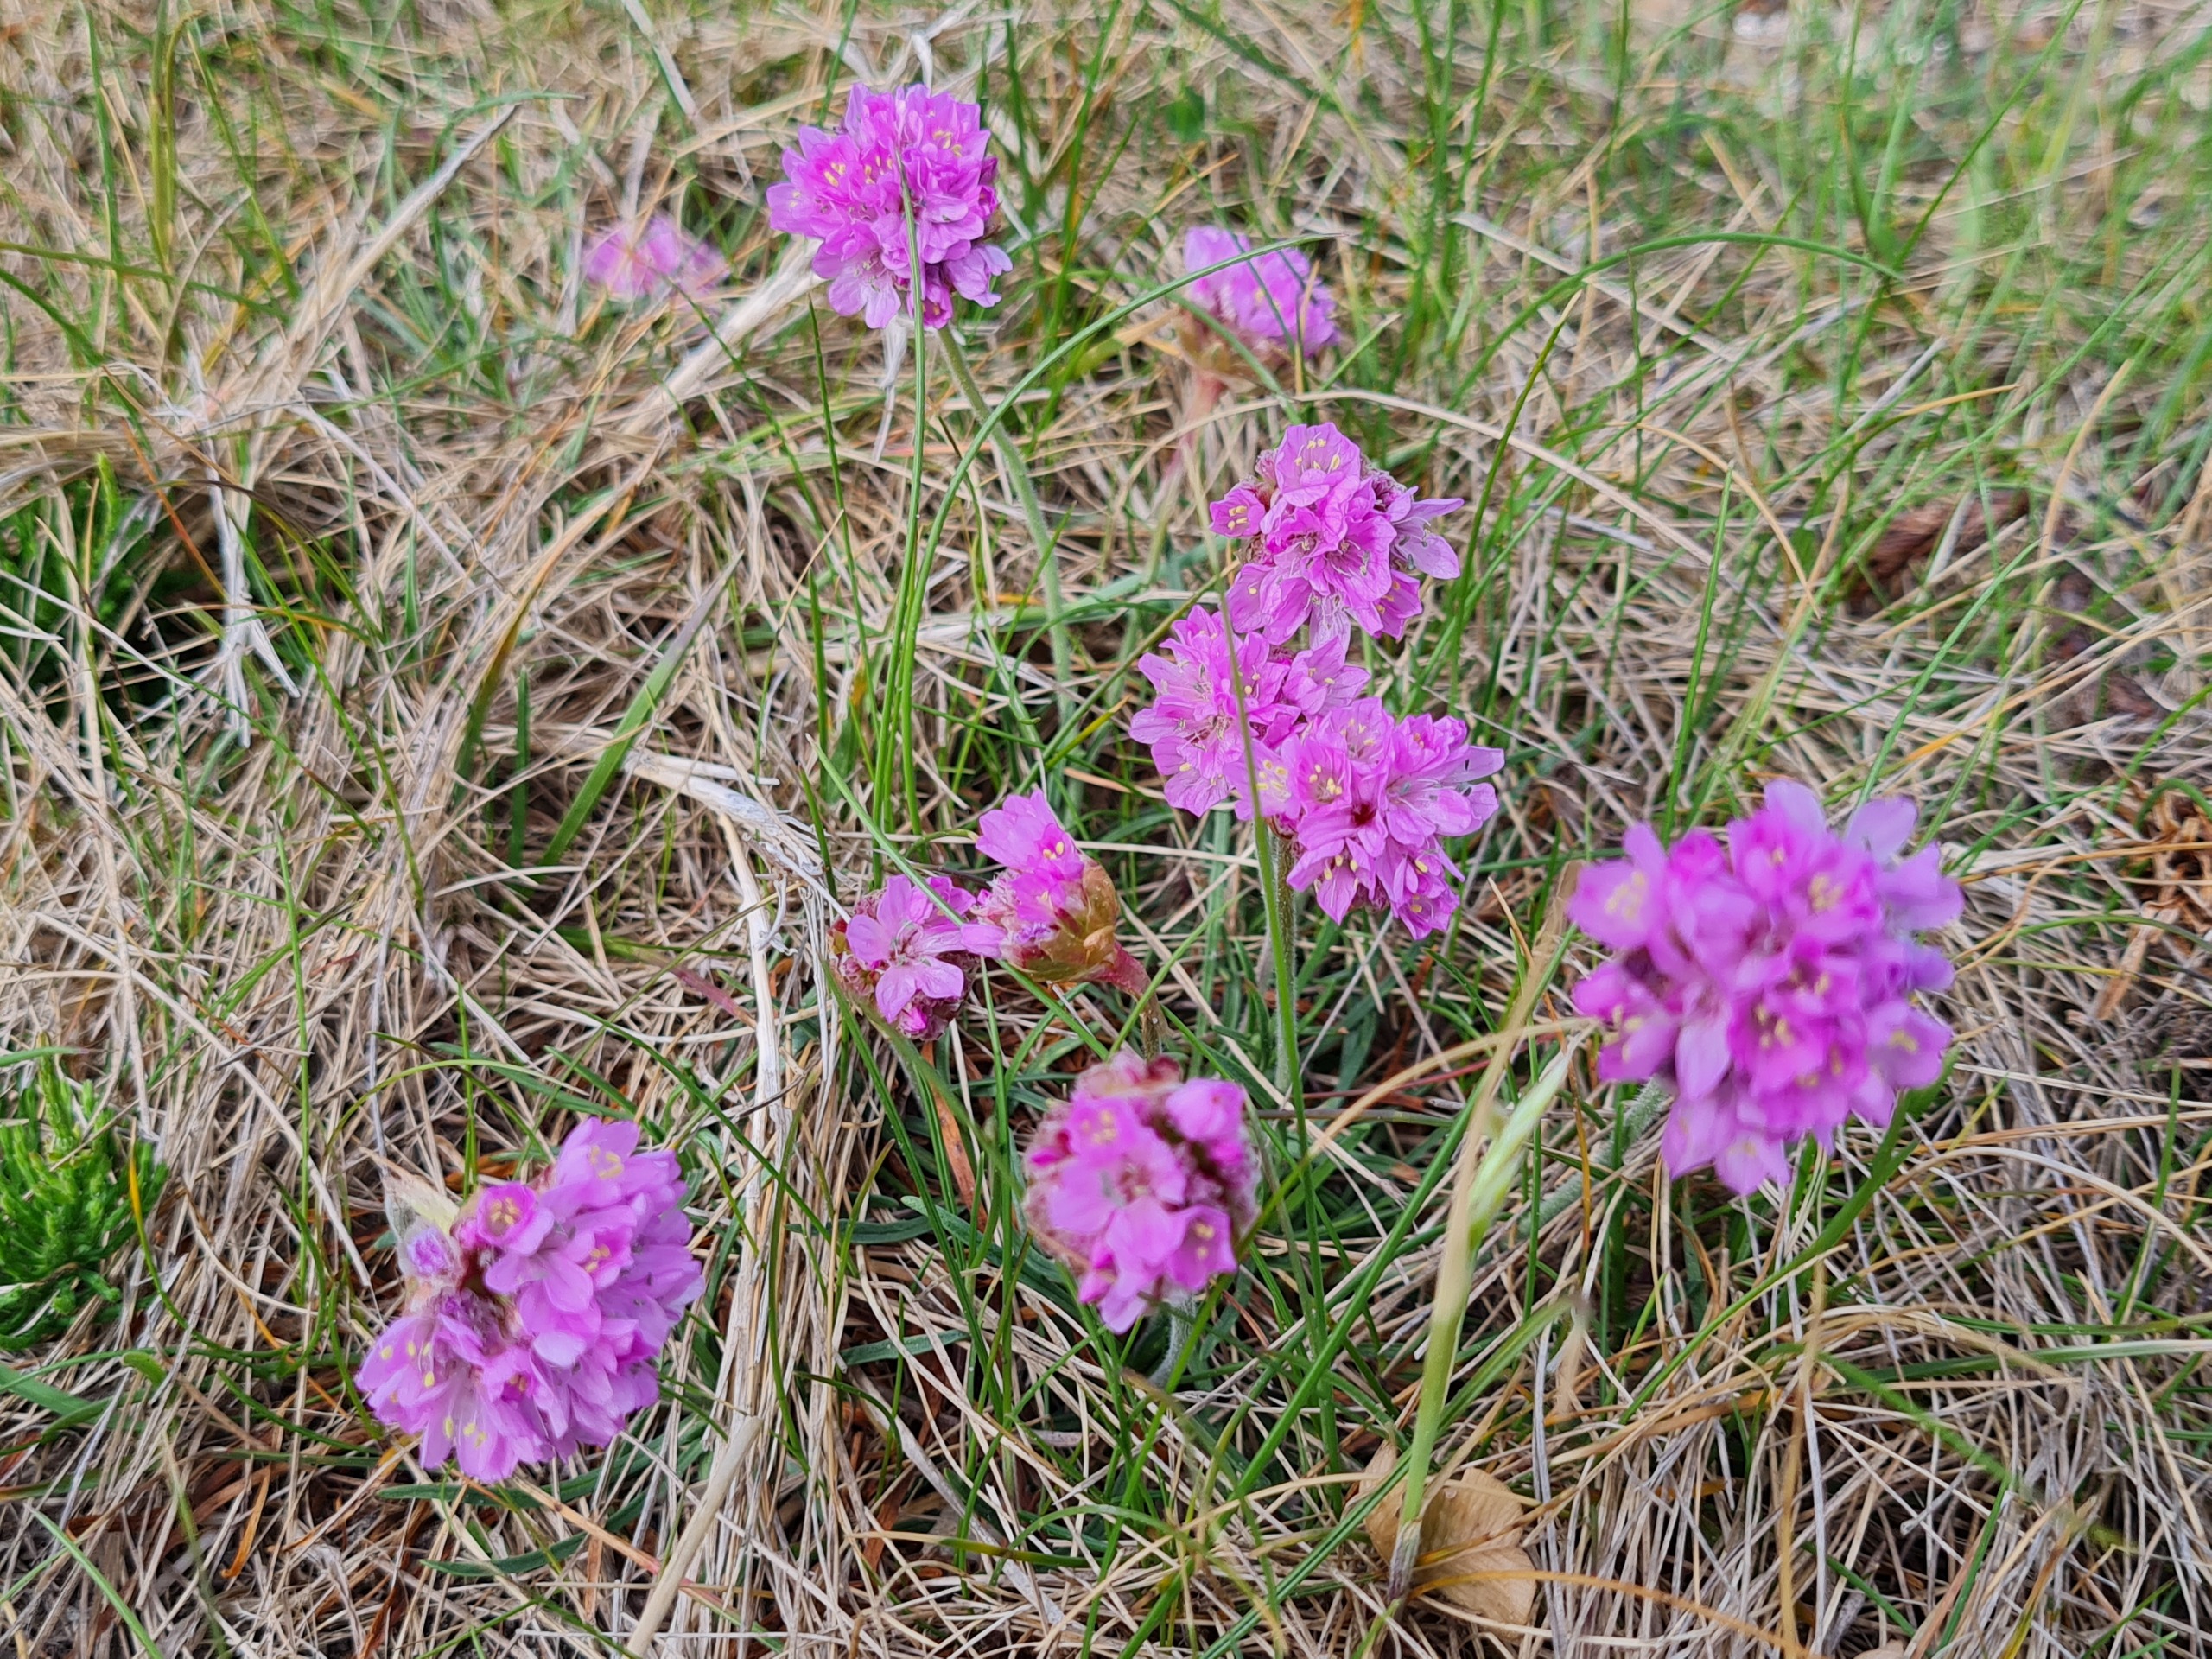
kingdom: Plantae
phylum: Tracheophyta
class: Magnoliopsida
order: Caryophyllales
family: Plumbaginaceae
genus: Armeria
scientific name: Armeria maritima
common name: Engelskgræs
